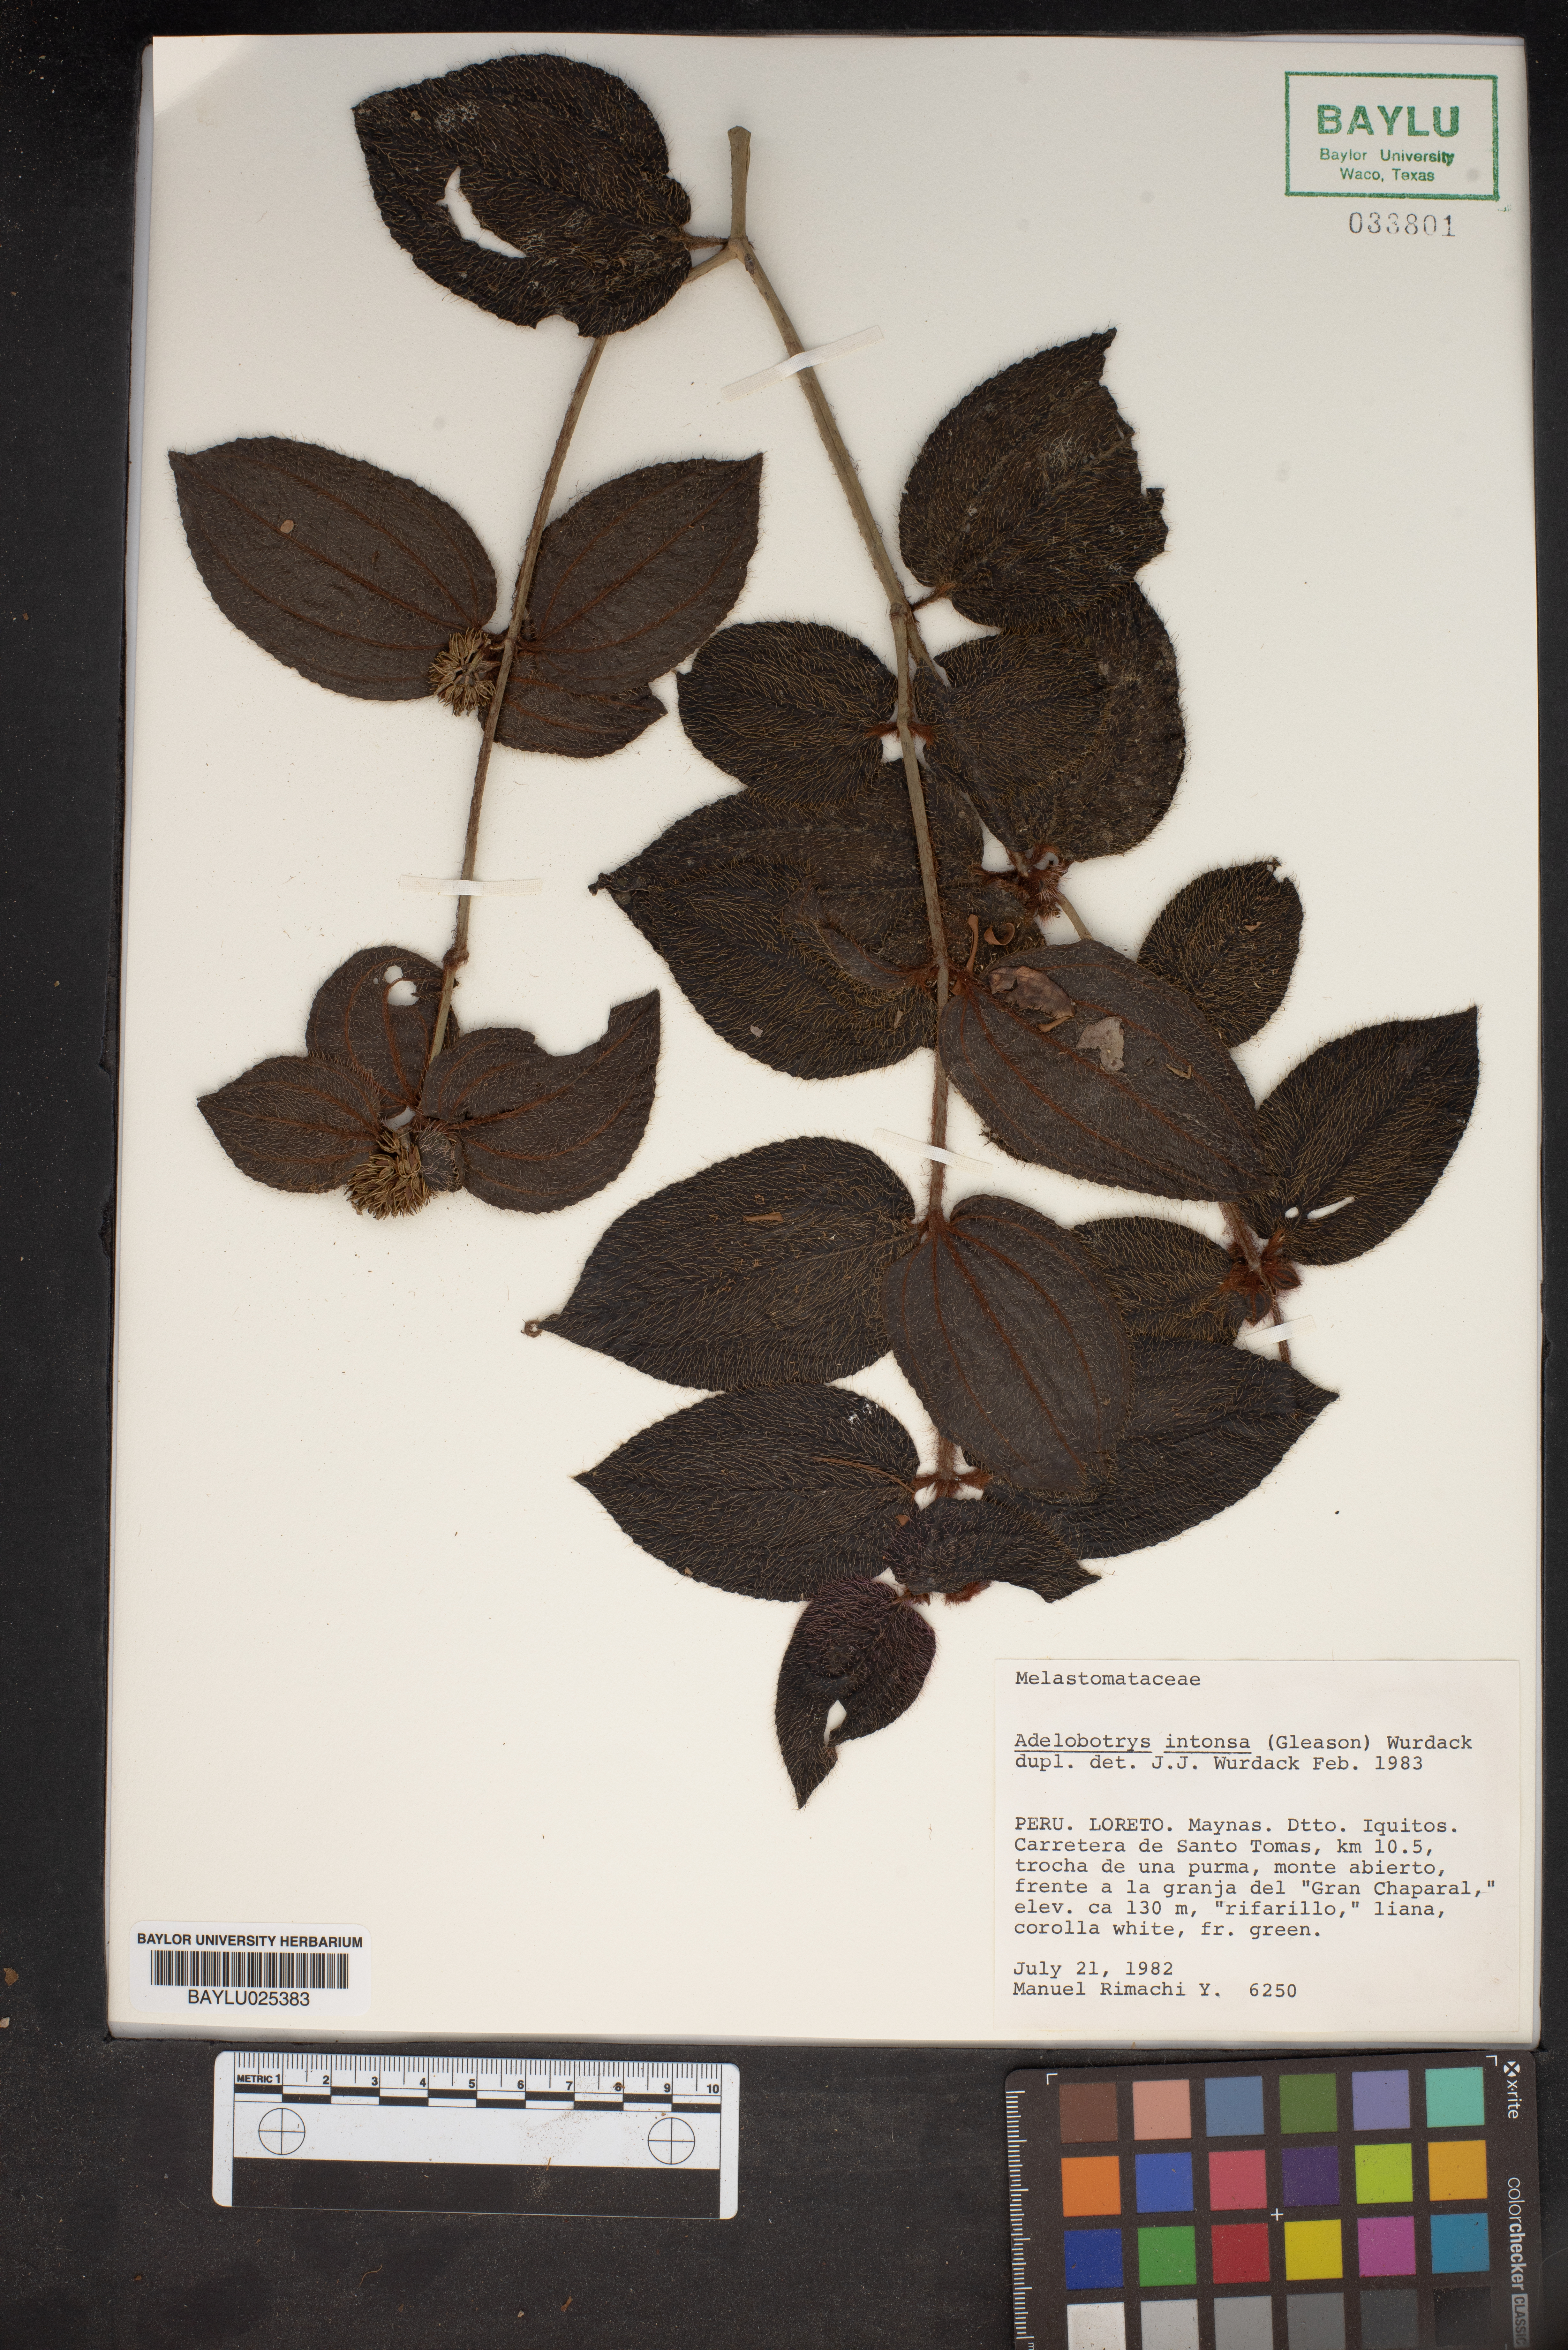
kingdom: Plantae
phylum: Tracheophyta
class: Magnoliopsida
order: Myrtales
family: Melastomataceae
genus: Adelobotrys
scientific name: Adelobotrys intonsus
